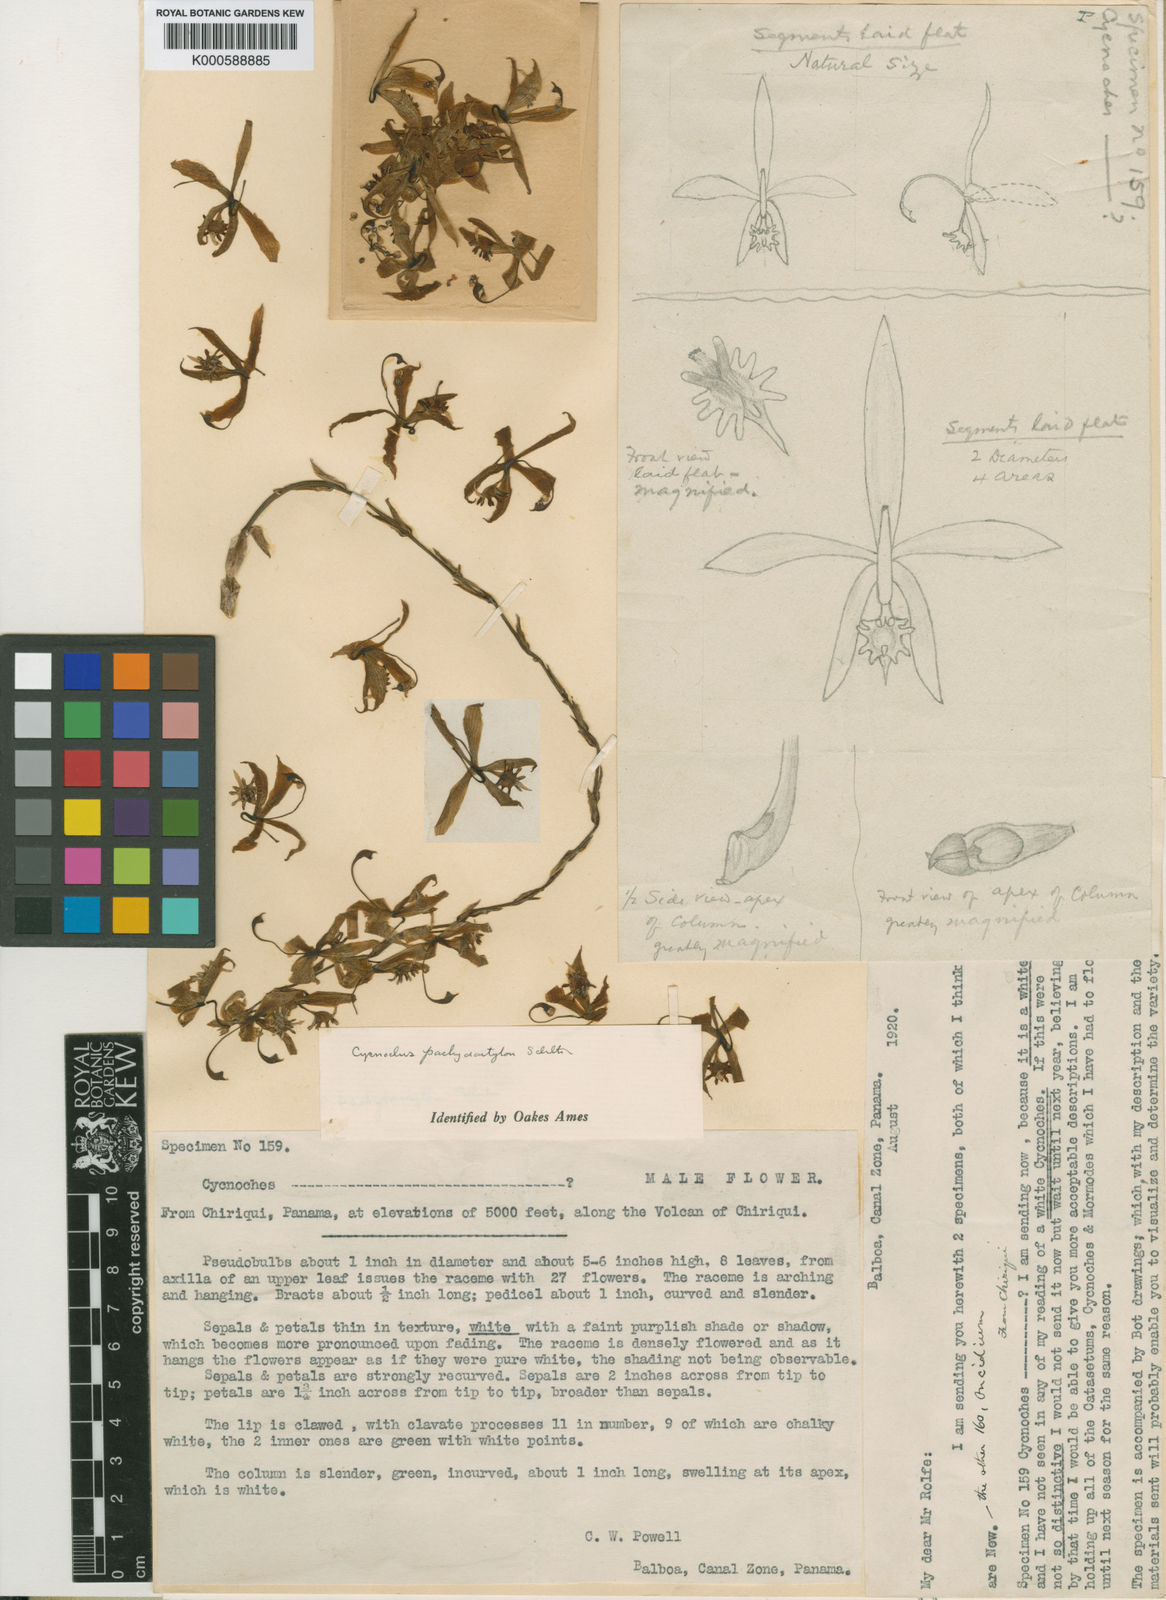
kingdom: Plantae
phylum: Tracheophyta
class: Liliopsida
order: Asparagales
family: Orchidaceae
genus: Cycnoches
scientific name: Cycnoches pachydactylon
